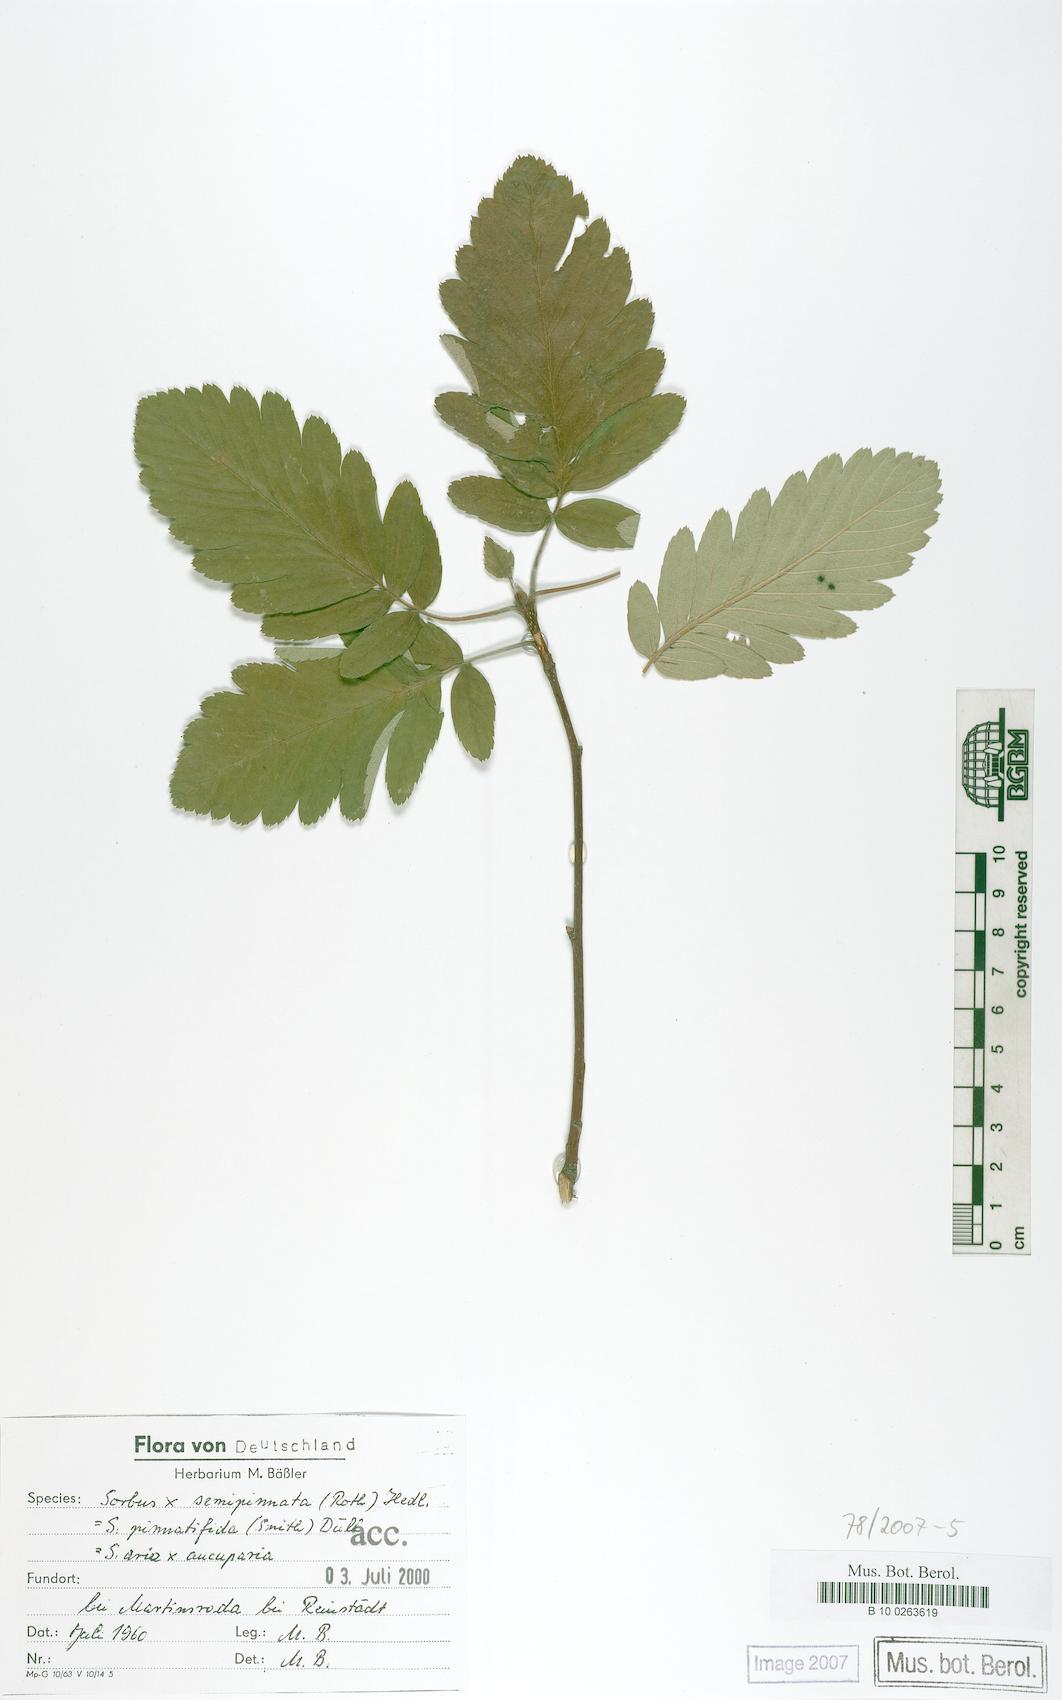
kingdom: Plantae
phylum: Tracheophyta
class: Magnoliopsida
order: Rosales
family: Rosaceae
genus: Hedlundia
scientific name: Hedlundia
